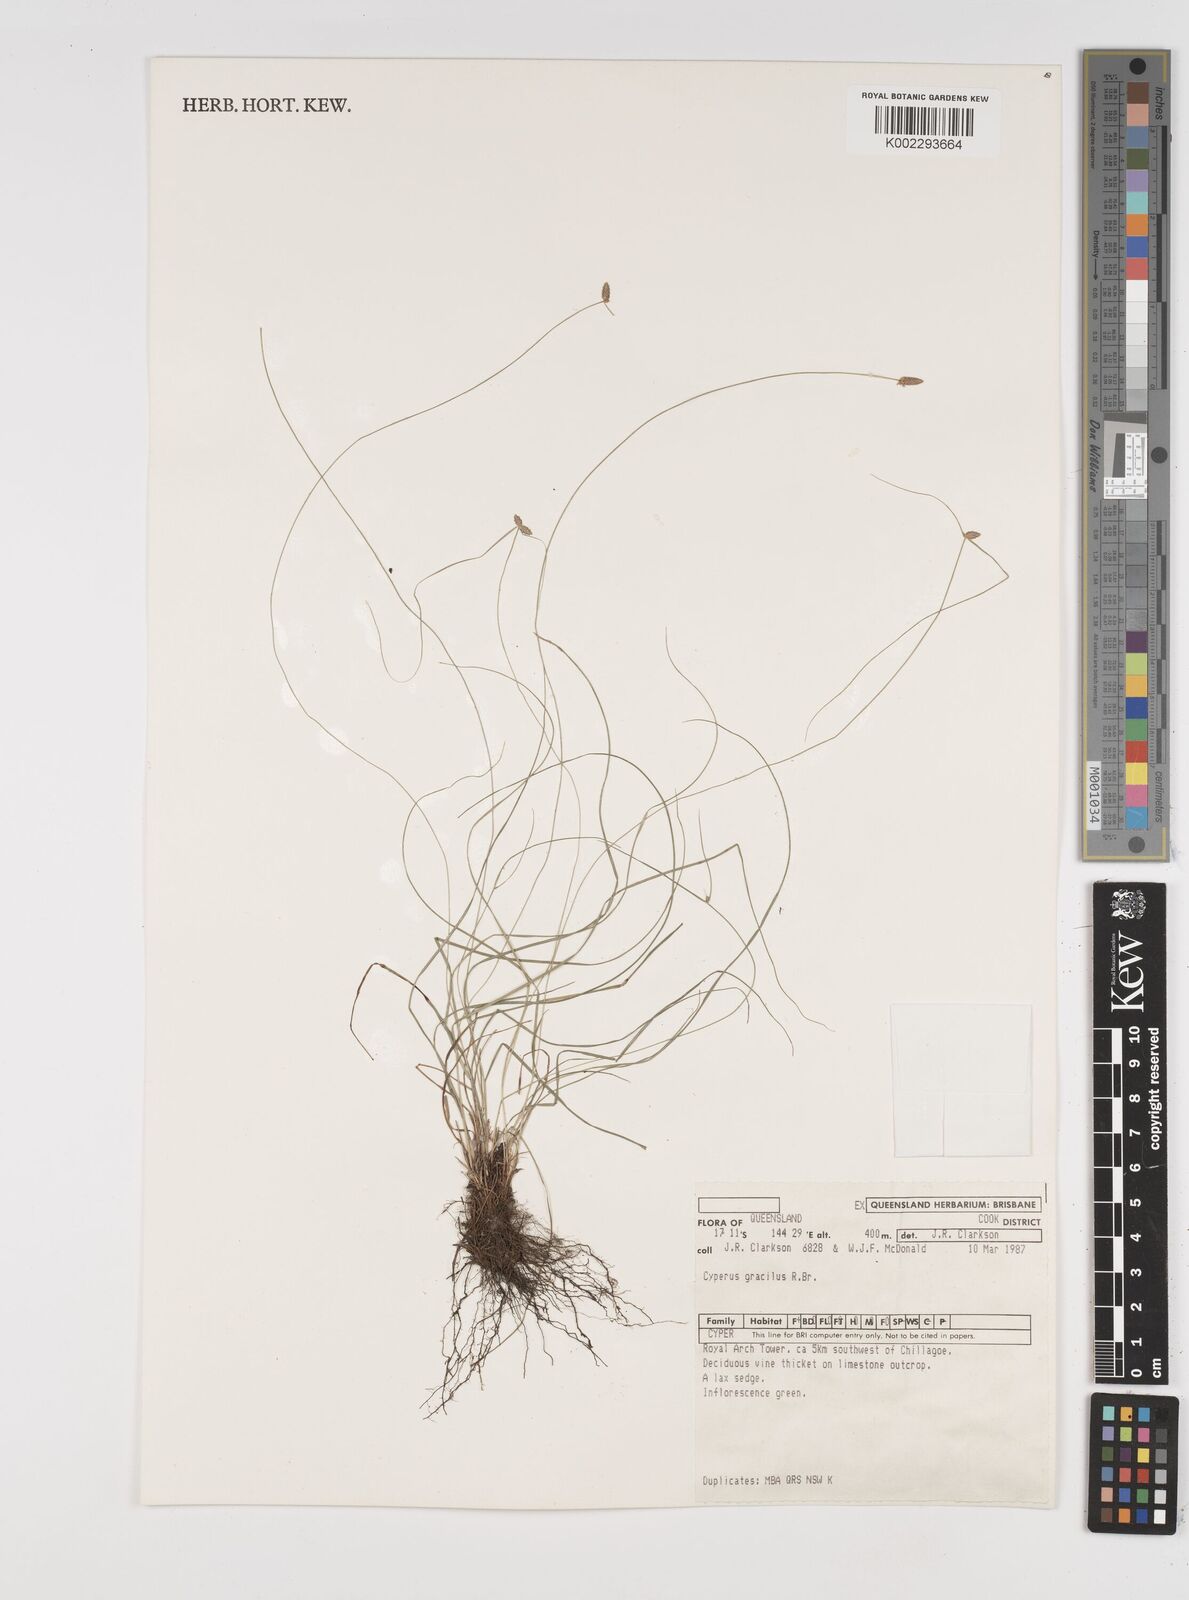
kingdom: Plantae
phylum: Tracheophyta
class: Liliopsida
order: Poales
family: Cyperaceae
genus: Cyperus
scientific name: Cyperus gracilis
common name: Slimjim flatsedge
